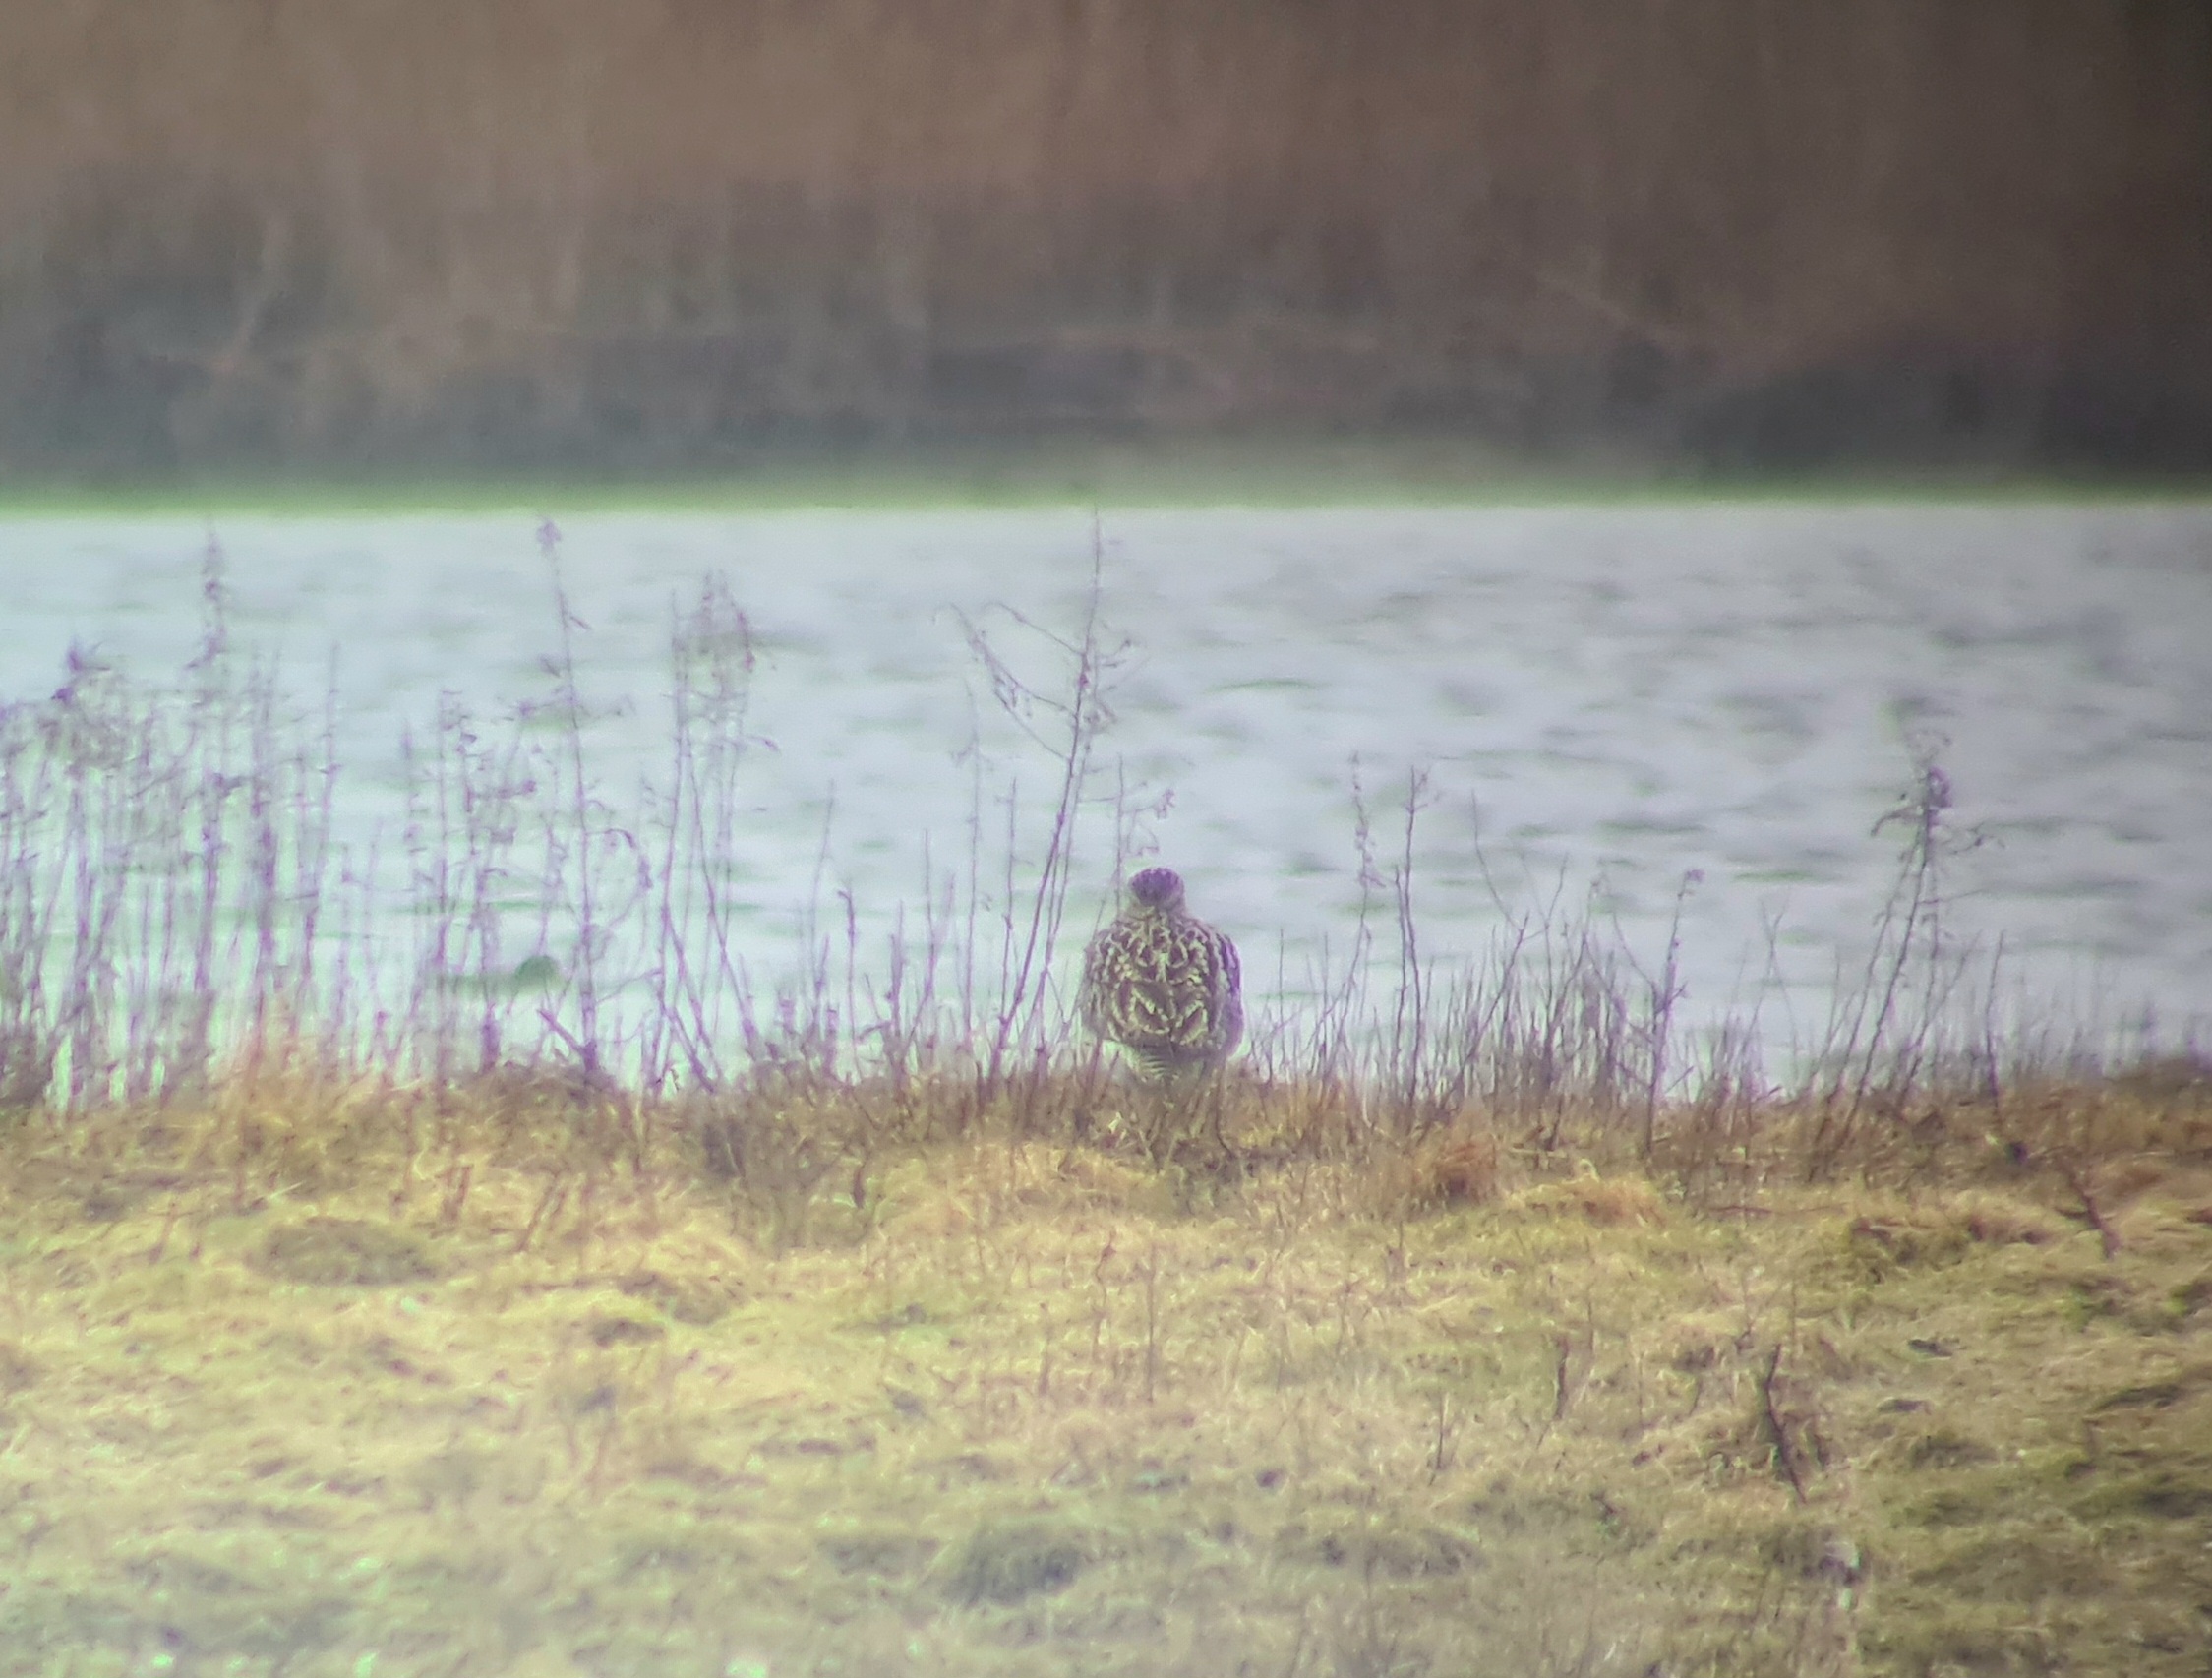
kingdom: Animalia
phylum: Chordata
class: Aves
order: Charadriiformes
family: Scolopacidae
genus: Numenius
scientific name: Numenius arquata
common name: Storspove
